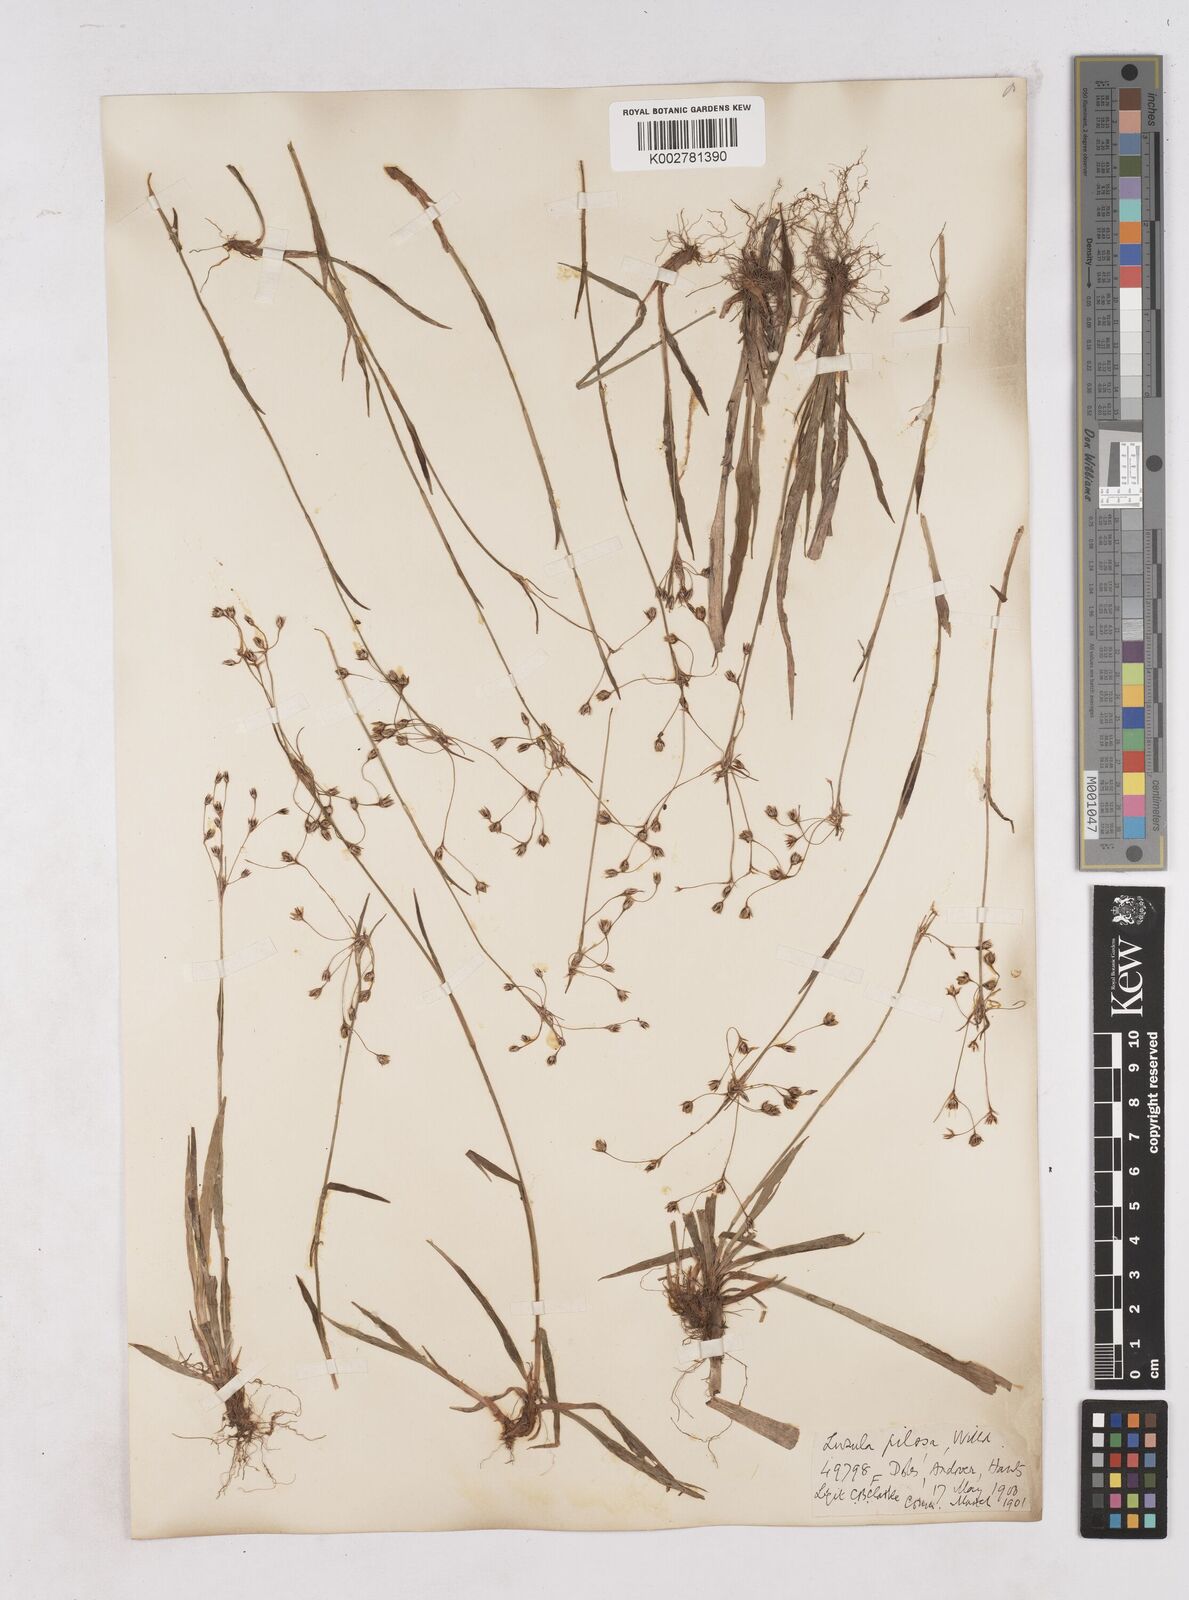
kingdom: Plantae
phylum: Tracheophyta
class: Liliopsida
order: Poales
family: Juncaceae
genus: Luzula
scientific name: Luzula pilosa
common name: Hairy wood-rush
